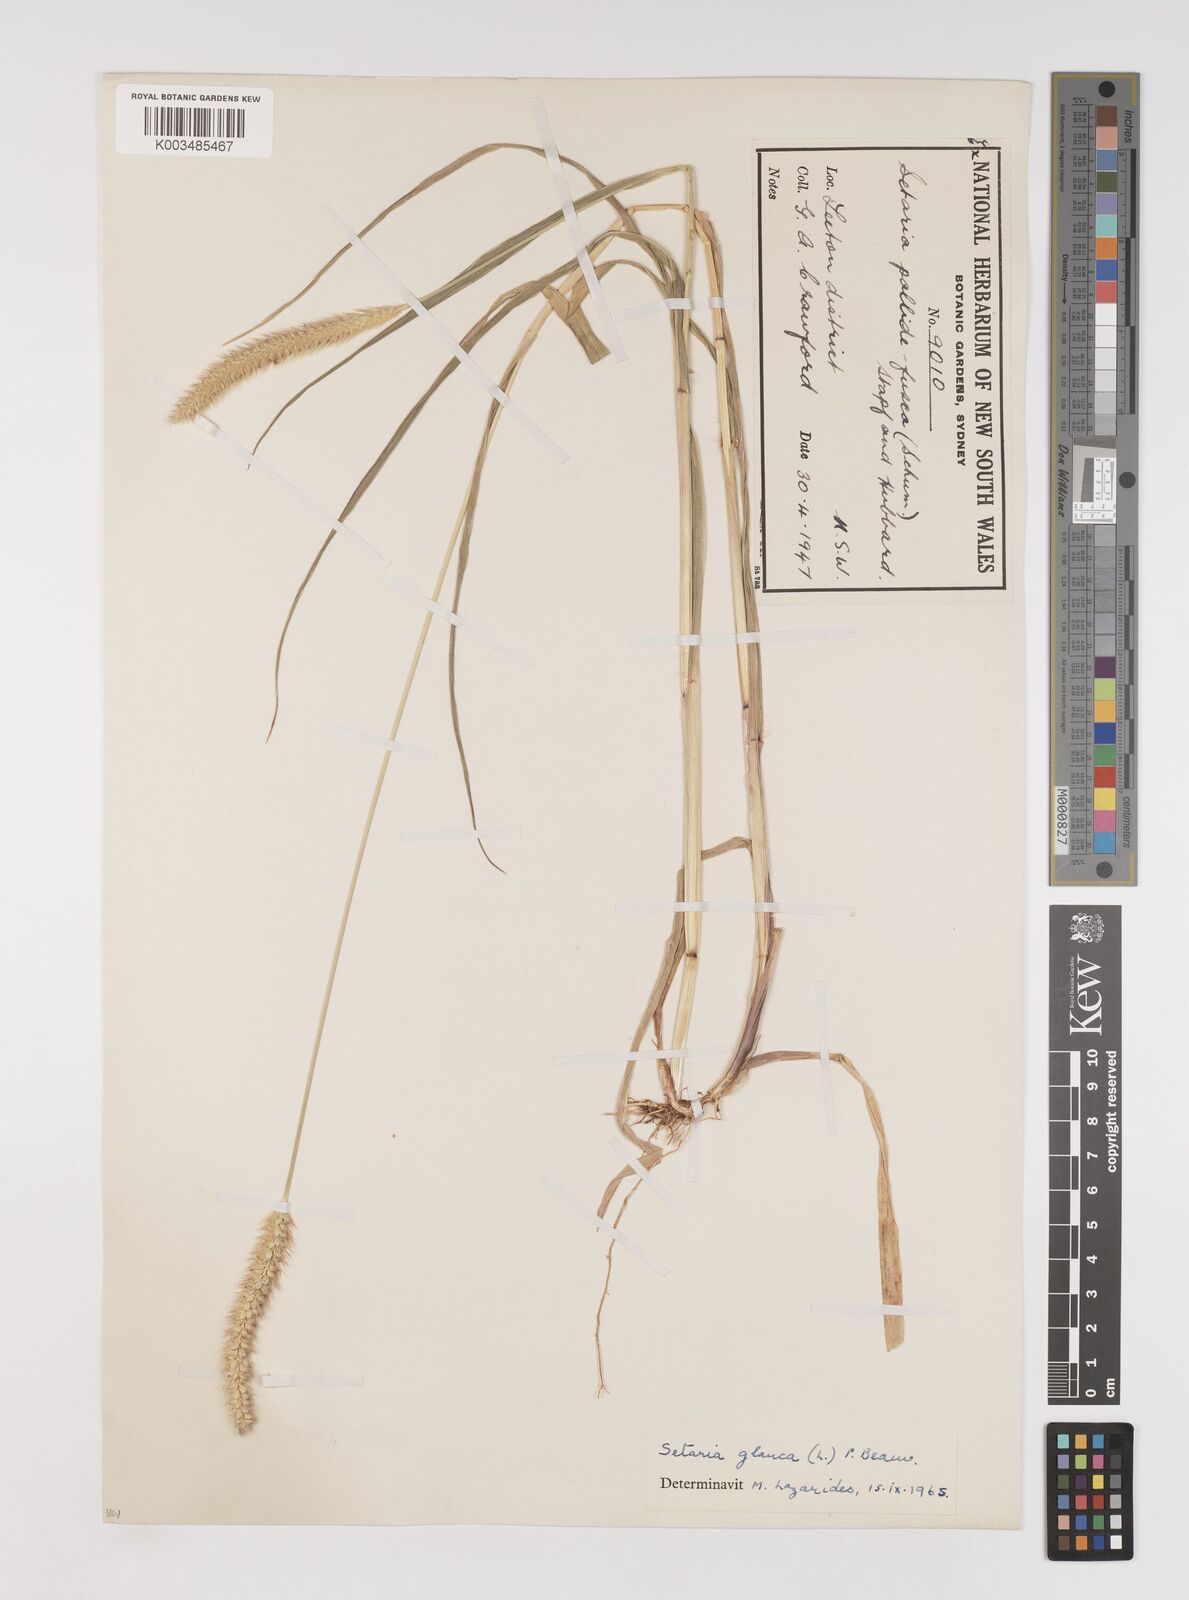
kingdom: Plantae
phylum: Tracheophyta
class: Liliopsida
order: Poales
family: Poaceae
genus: Setaria
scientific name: Setaria pumila
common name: Yellow bristle-grass
